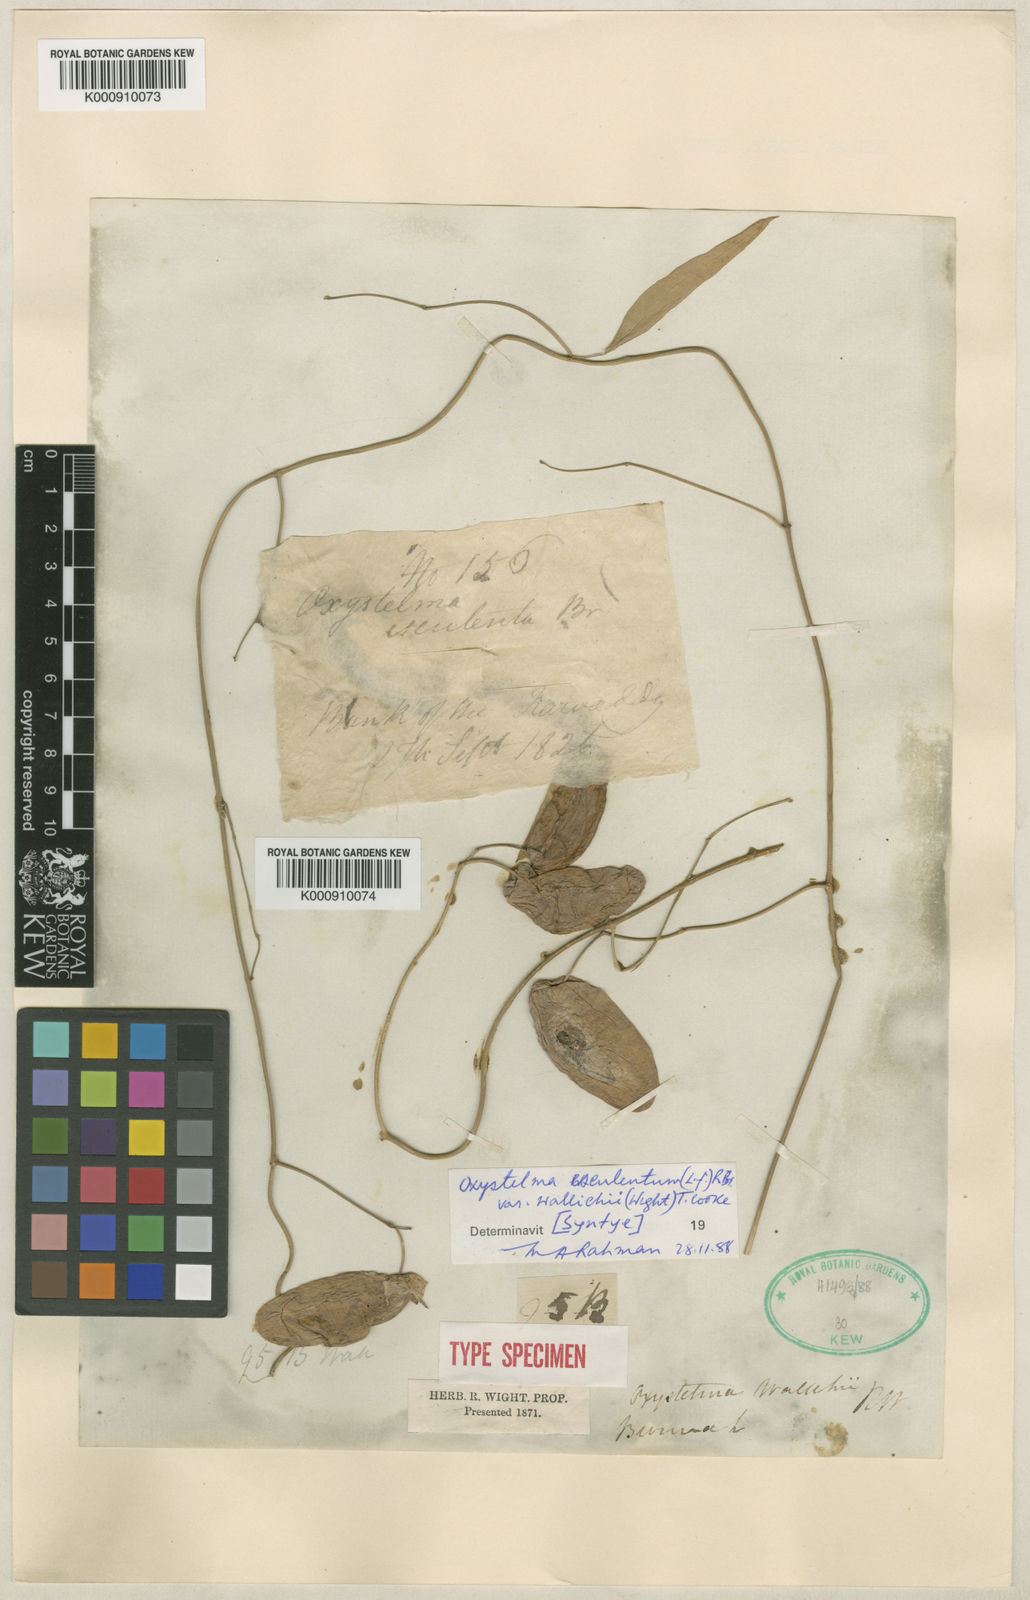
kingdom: Plantae
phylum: Tracheophyta
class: Magnoliopsida
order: Gentianales
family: Apocynaceae
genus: Oxystelma
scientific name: Oxystelma wallichii
